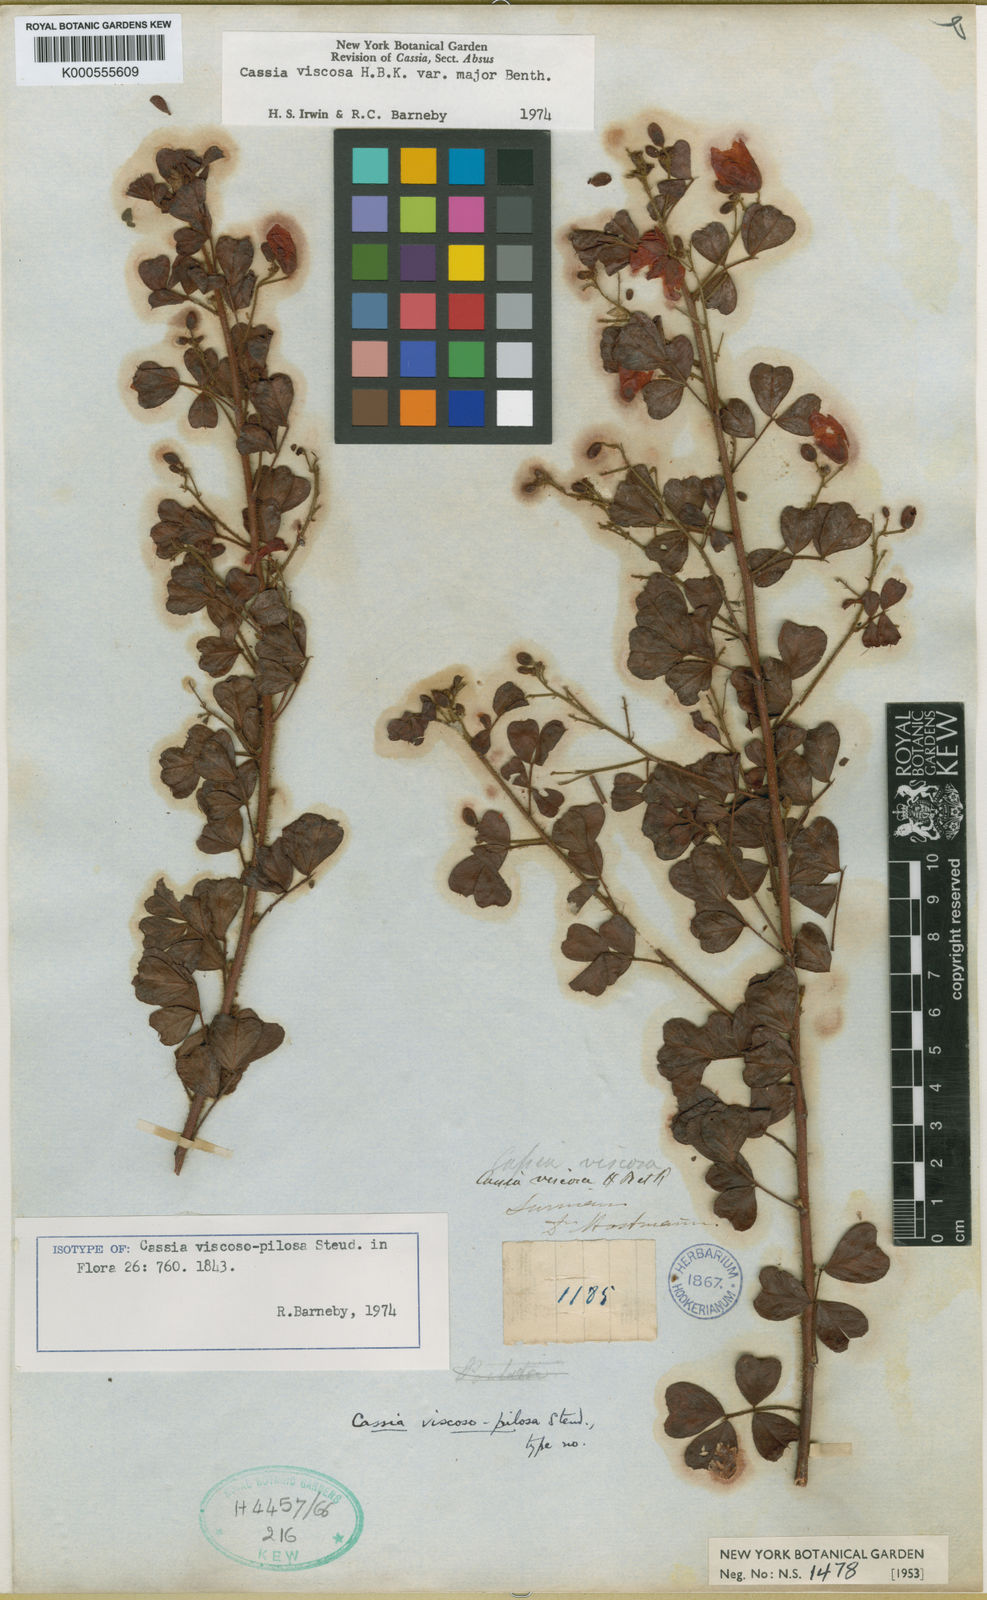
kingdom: Plantae
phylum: Tracheophyta
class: Magnoliopsida
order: Fabales
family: Fabaceae
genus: Chamaecrista
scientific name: Chamaecrista viscosa
